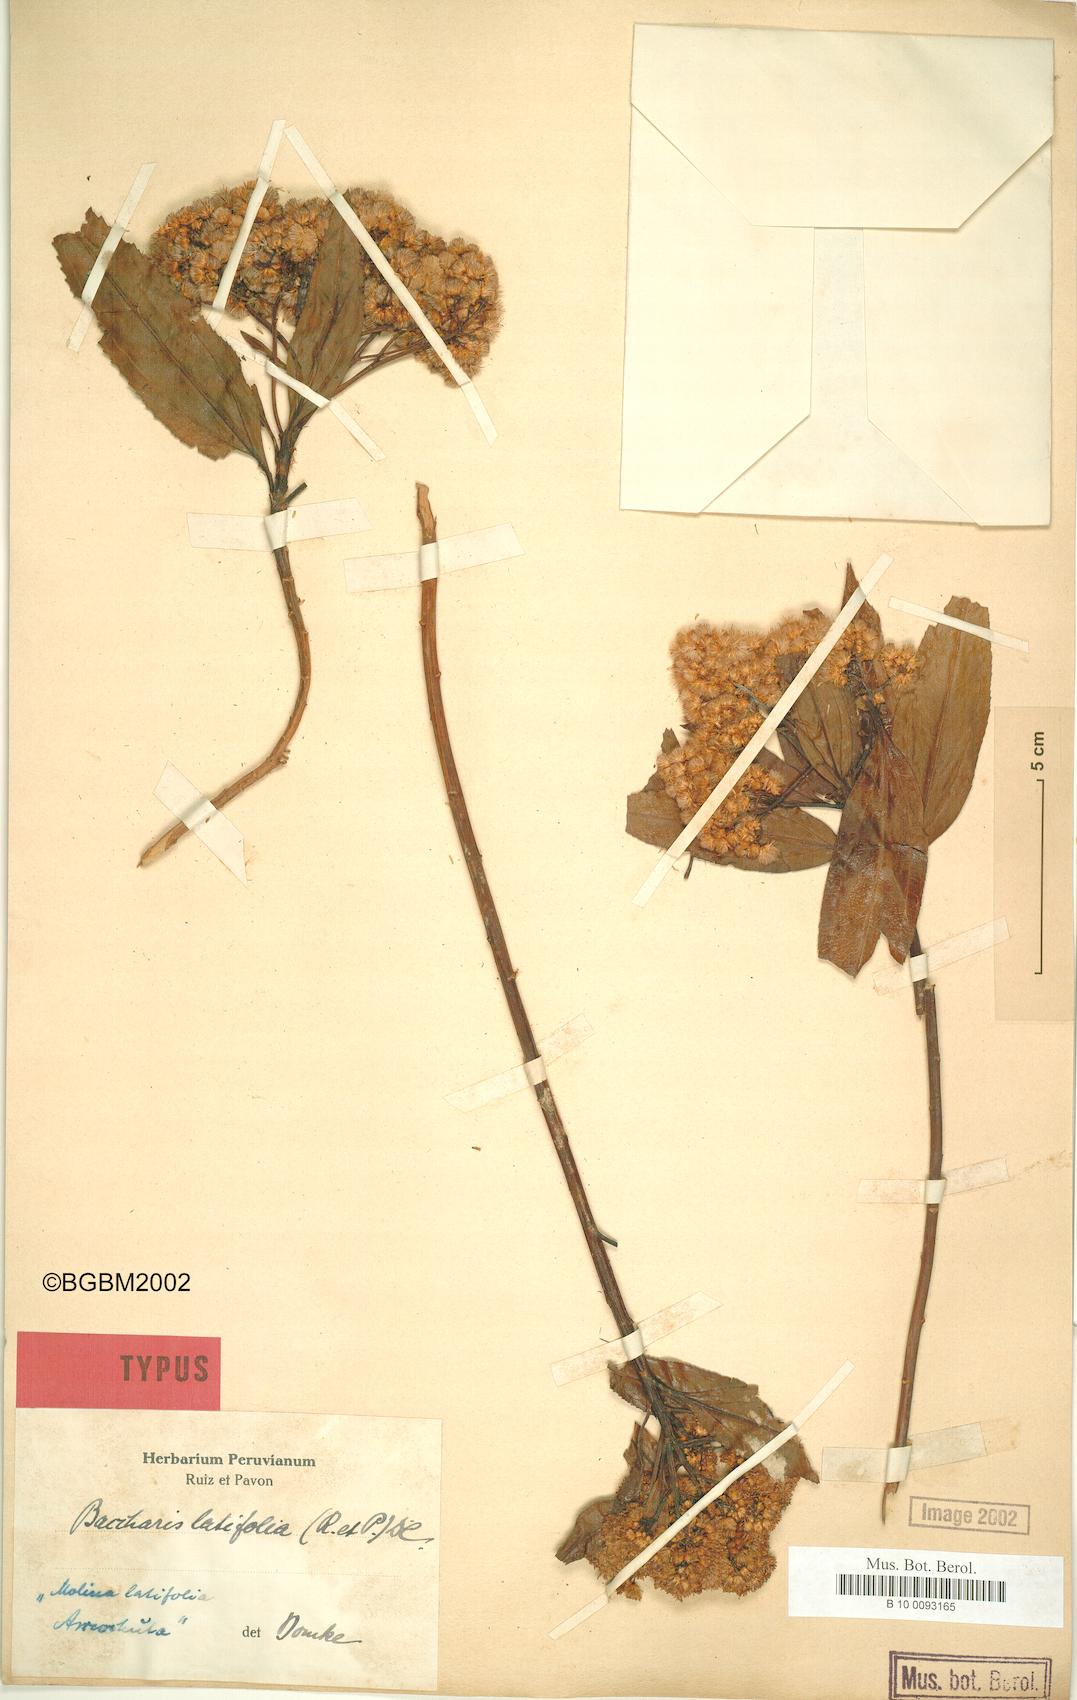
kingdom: Plantae
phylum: Tracheophyta
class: Magnoliopsida
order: Asterales
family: Asteraceae
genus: Baccharis
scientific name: Baccharis latifolia
